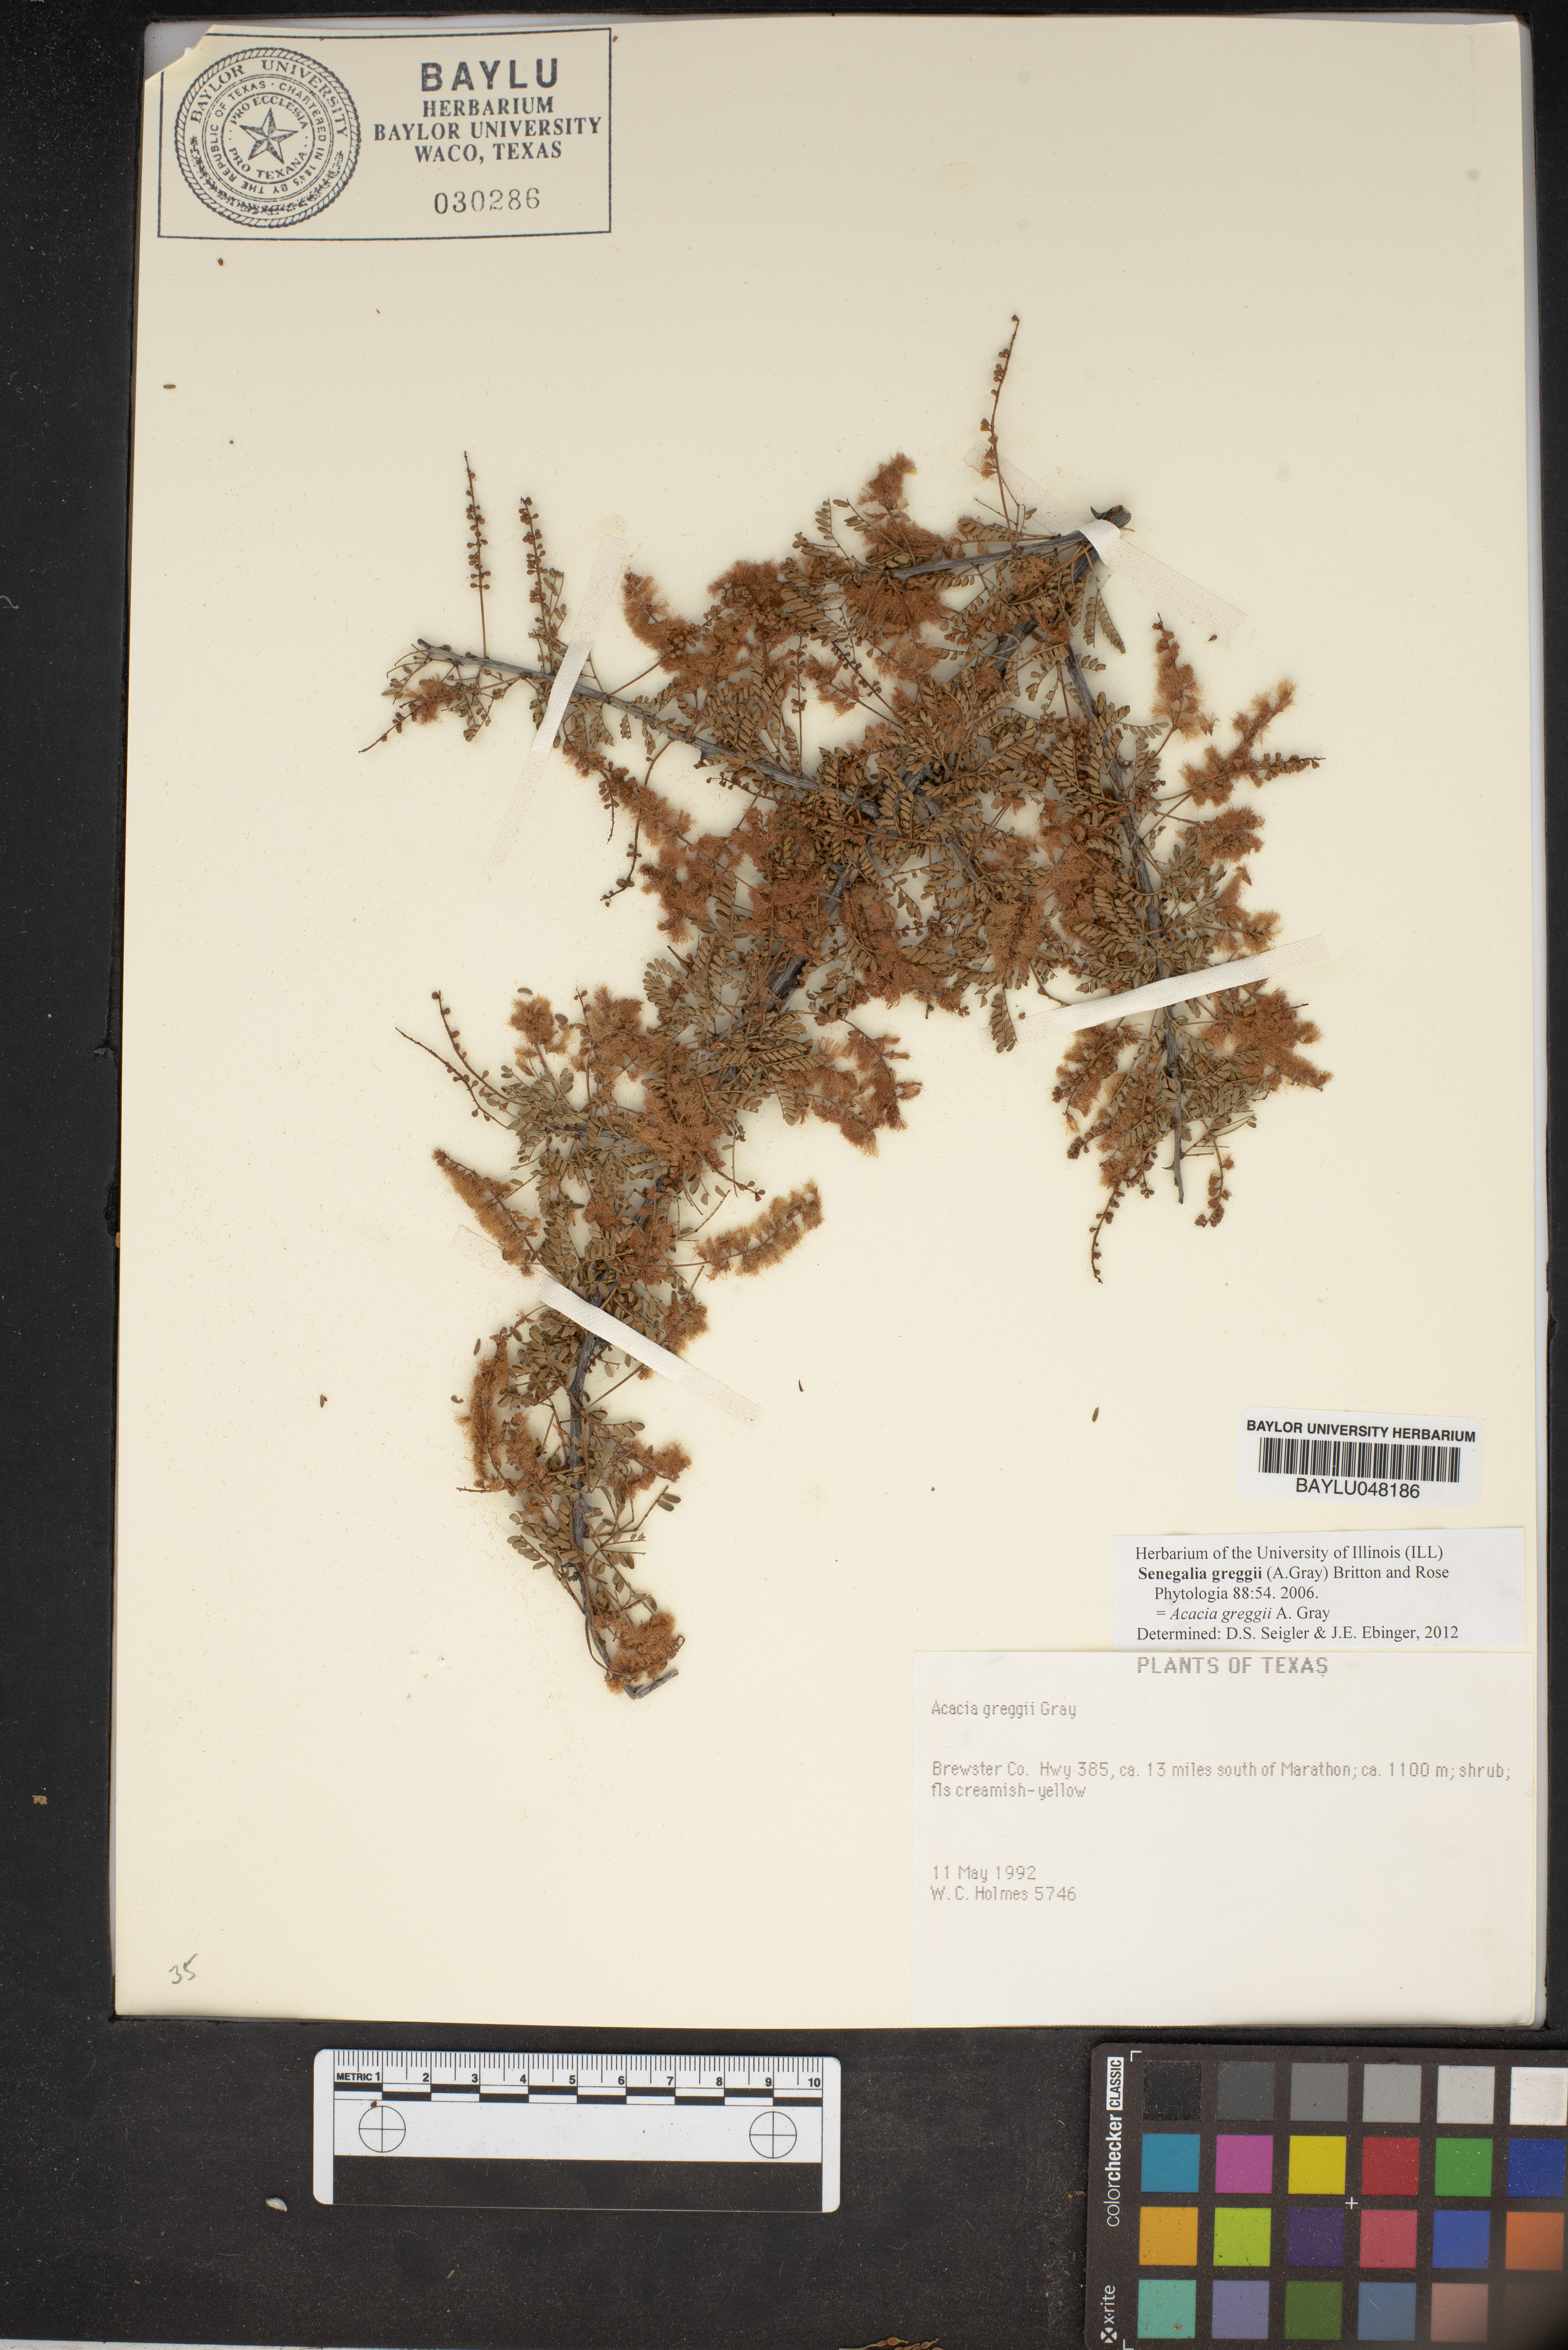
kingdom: Plantae
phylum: Tracheophyta
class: Magnoliopsida
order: Fabales
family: Fabaceae
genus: Senegalia
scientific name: Senegalia greggii
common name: Texas-mimosa
